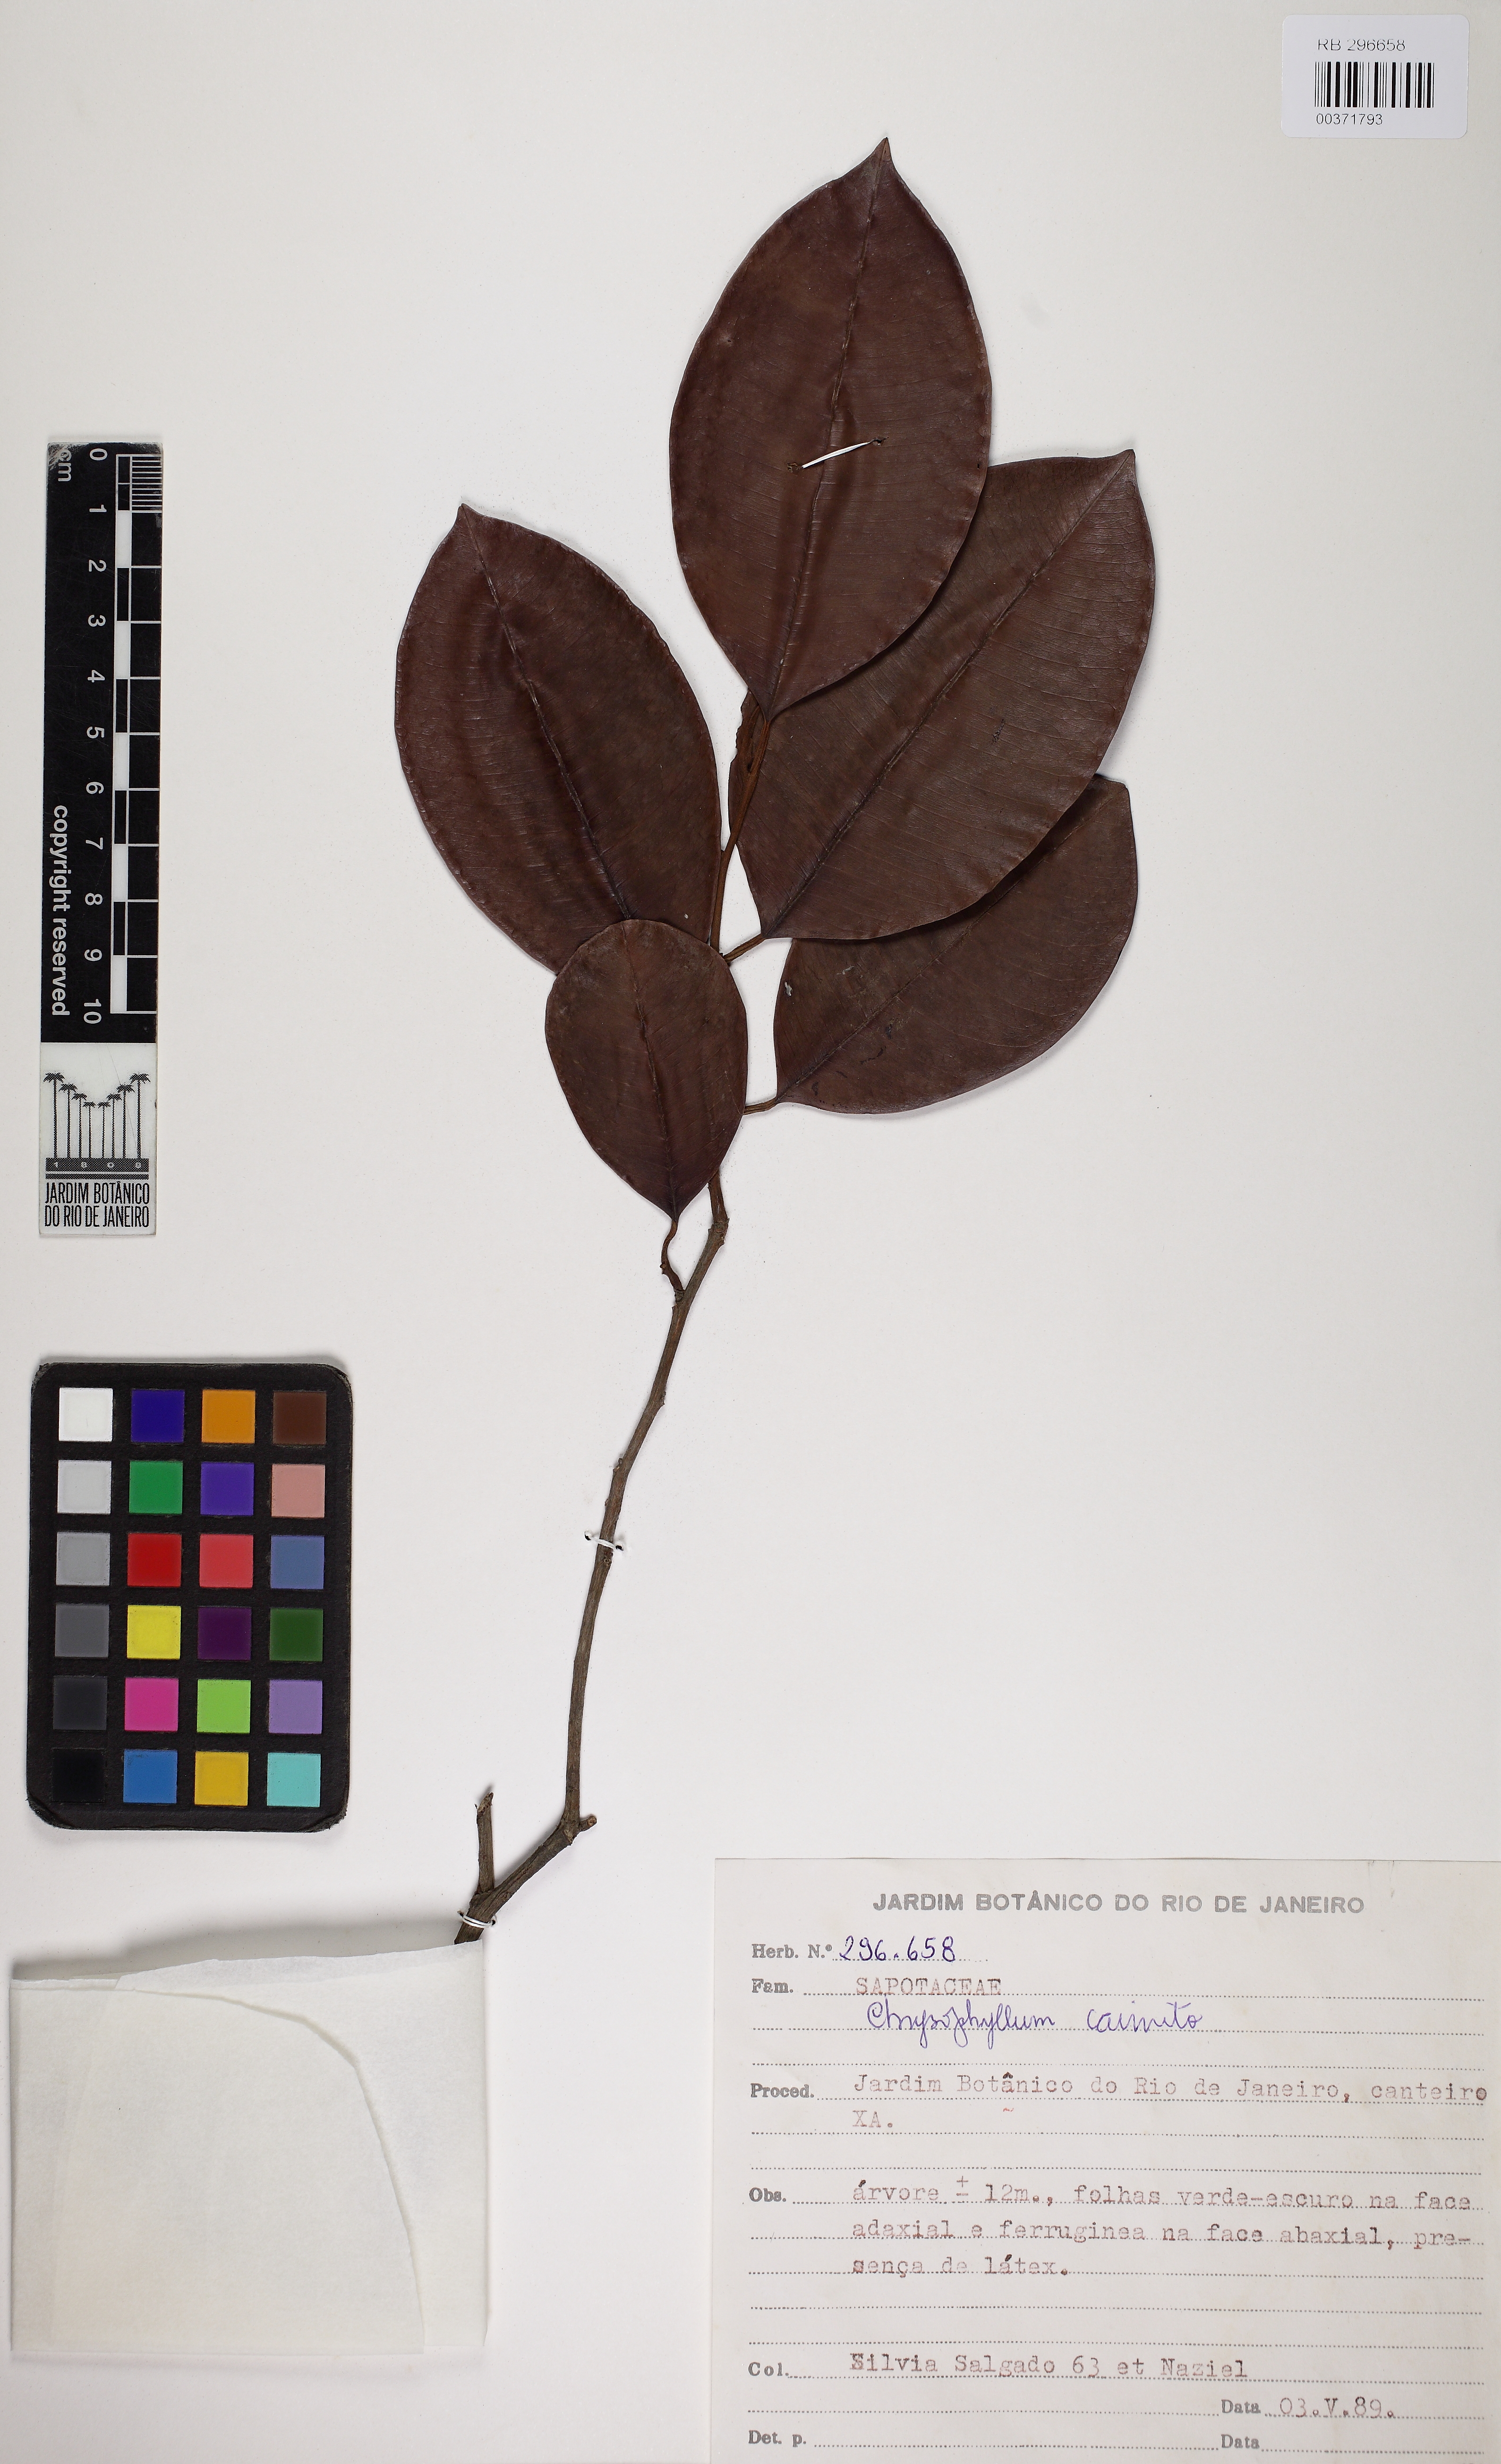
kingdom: Plantae
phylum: Tracheophyta
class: Magnoliopsida
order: Ericales
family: Sapotaceae
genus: Chrysophyllum
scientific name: Chrysophyllum cainito
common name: Star-apple
